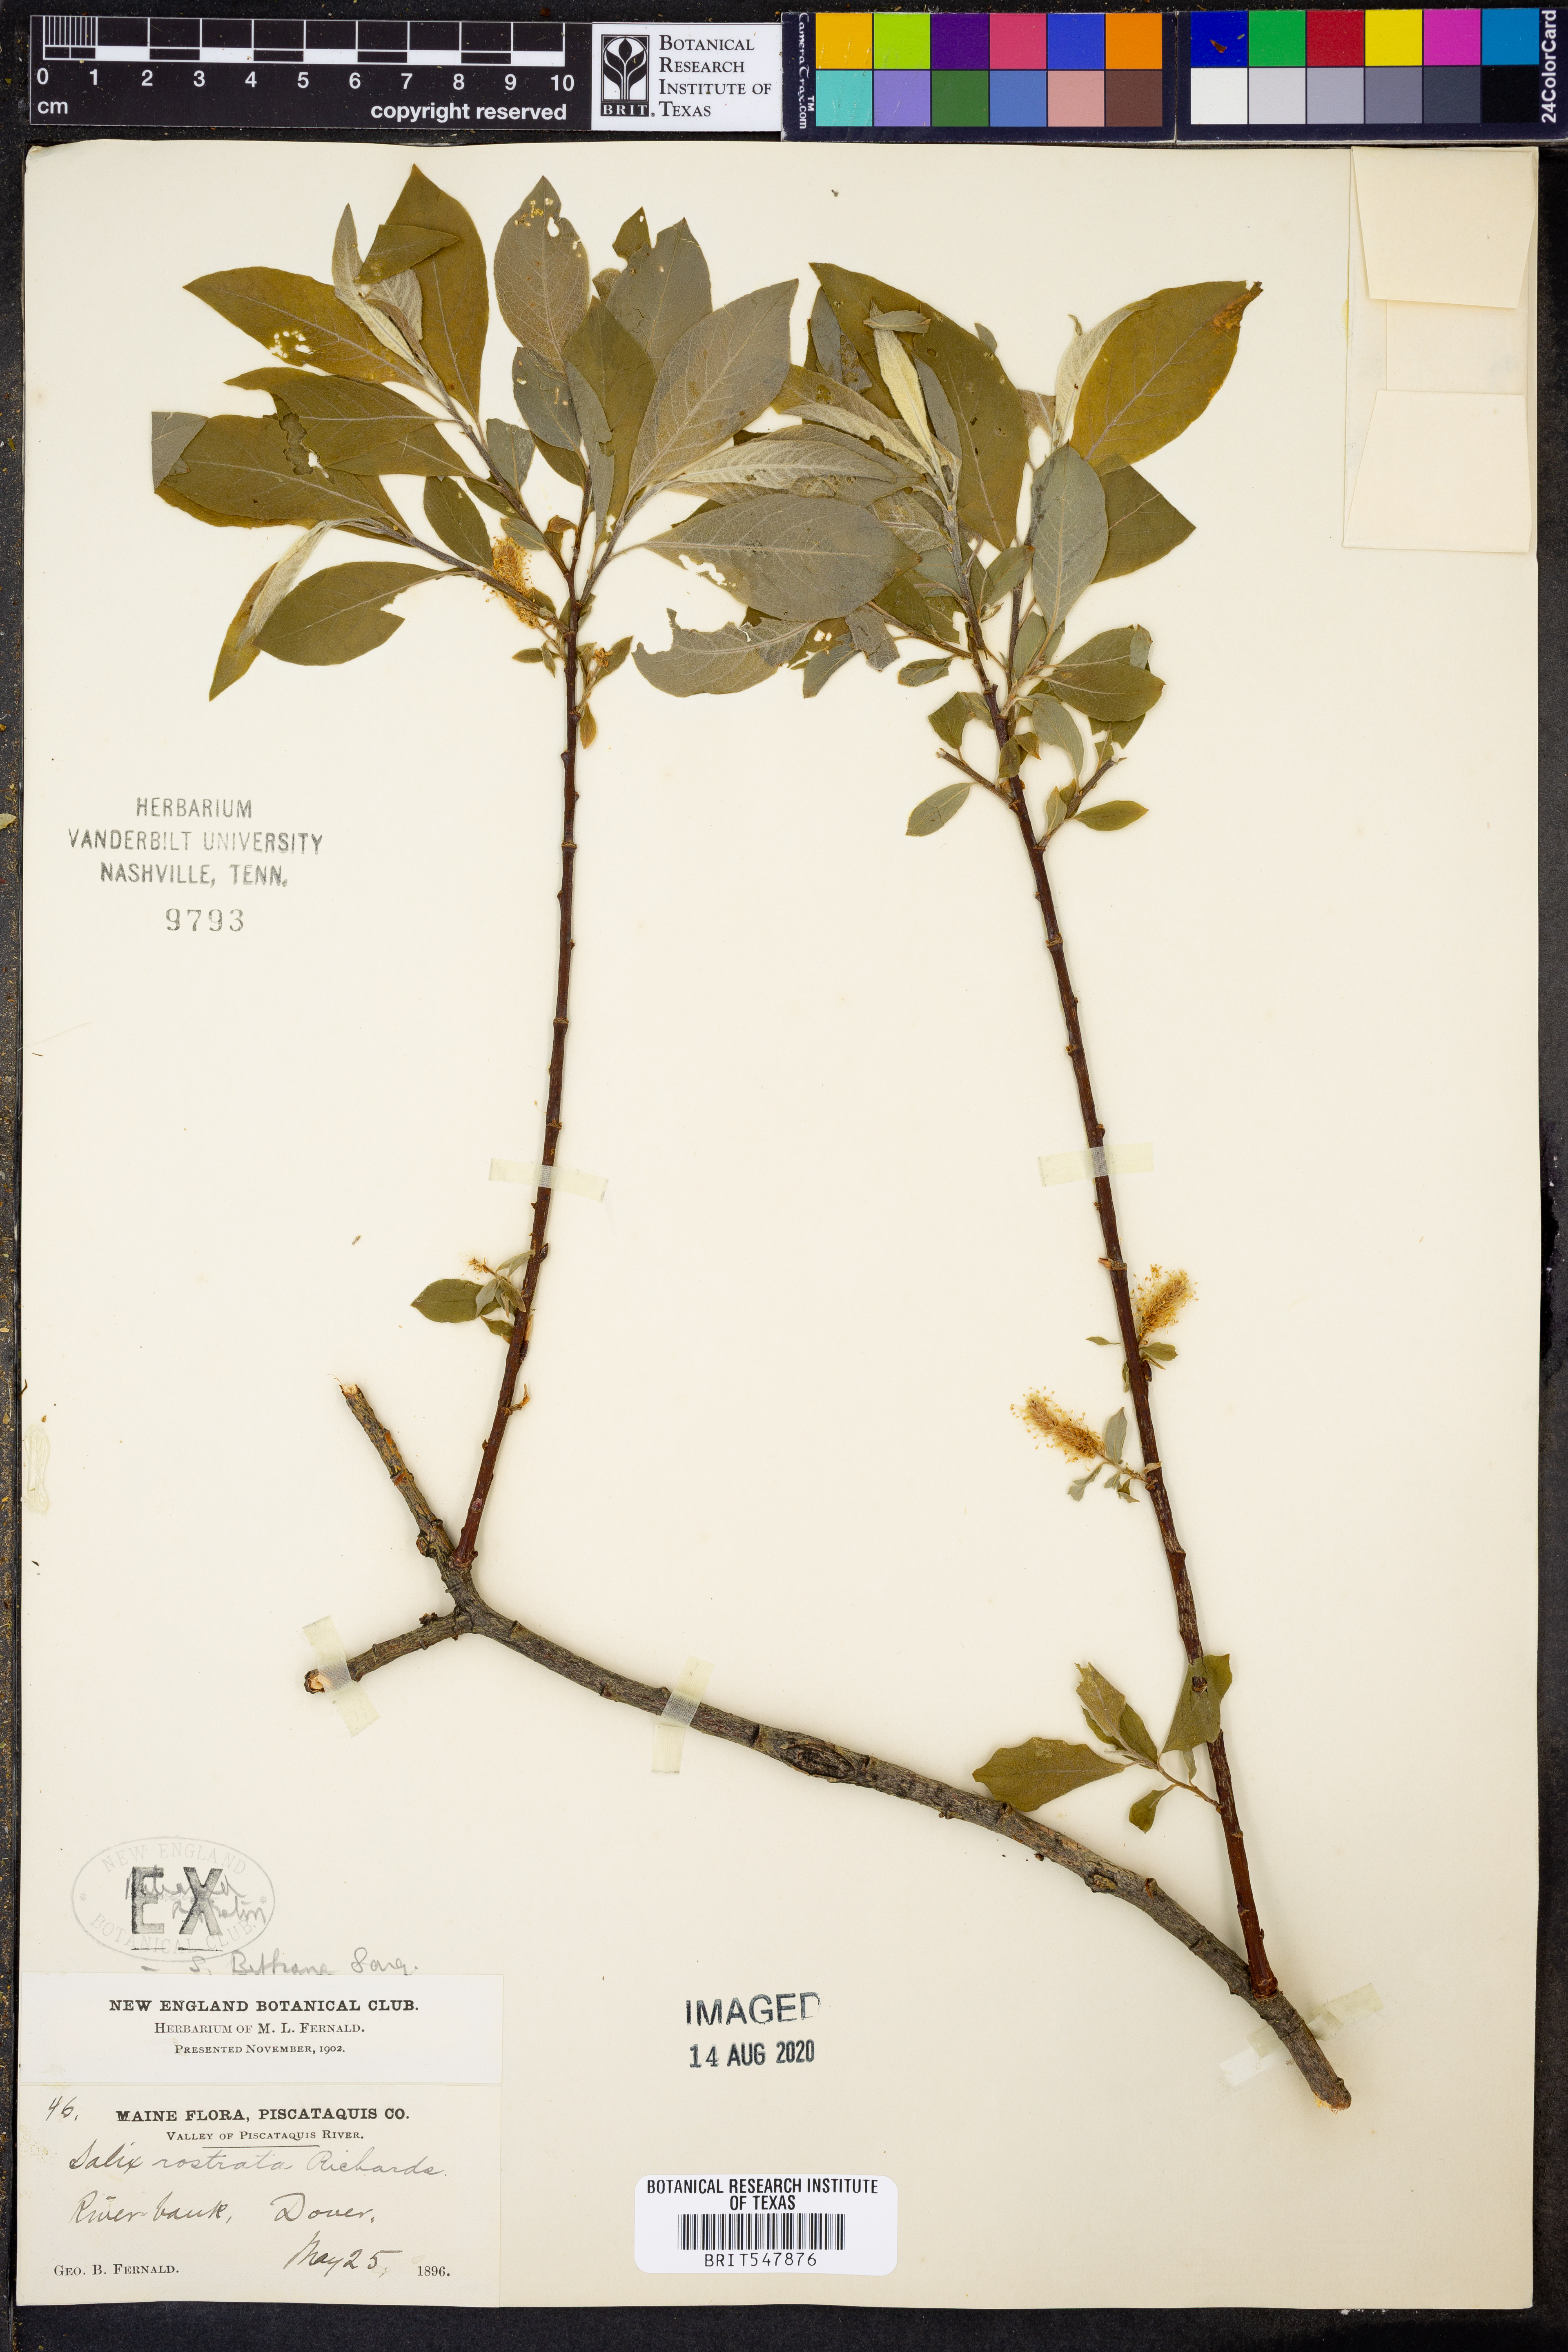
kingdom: Plantae
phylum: Tracheophyta
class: Magnoliopsida
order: Malpighiales
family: Salicaceae
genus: Salix
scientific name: Salix bebbiana
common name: Bebb's willow
